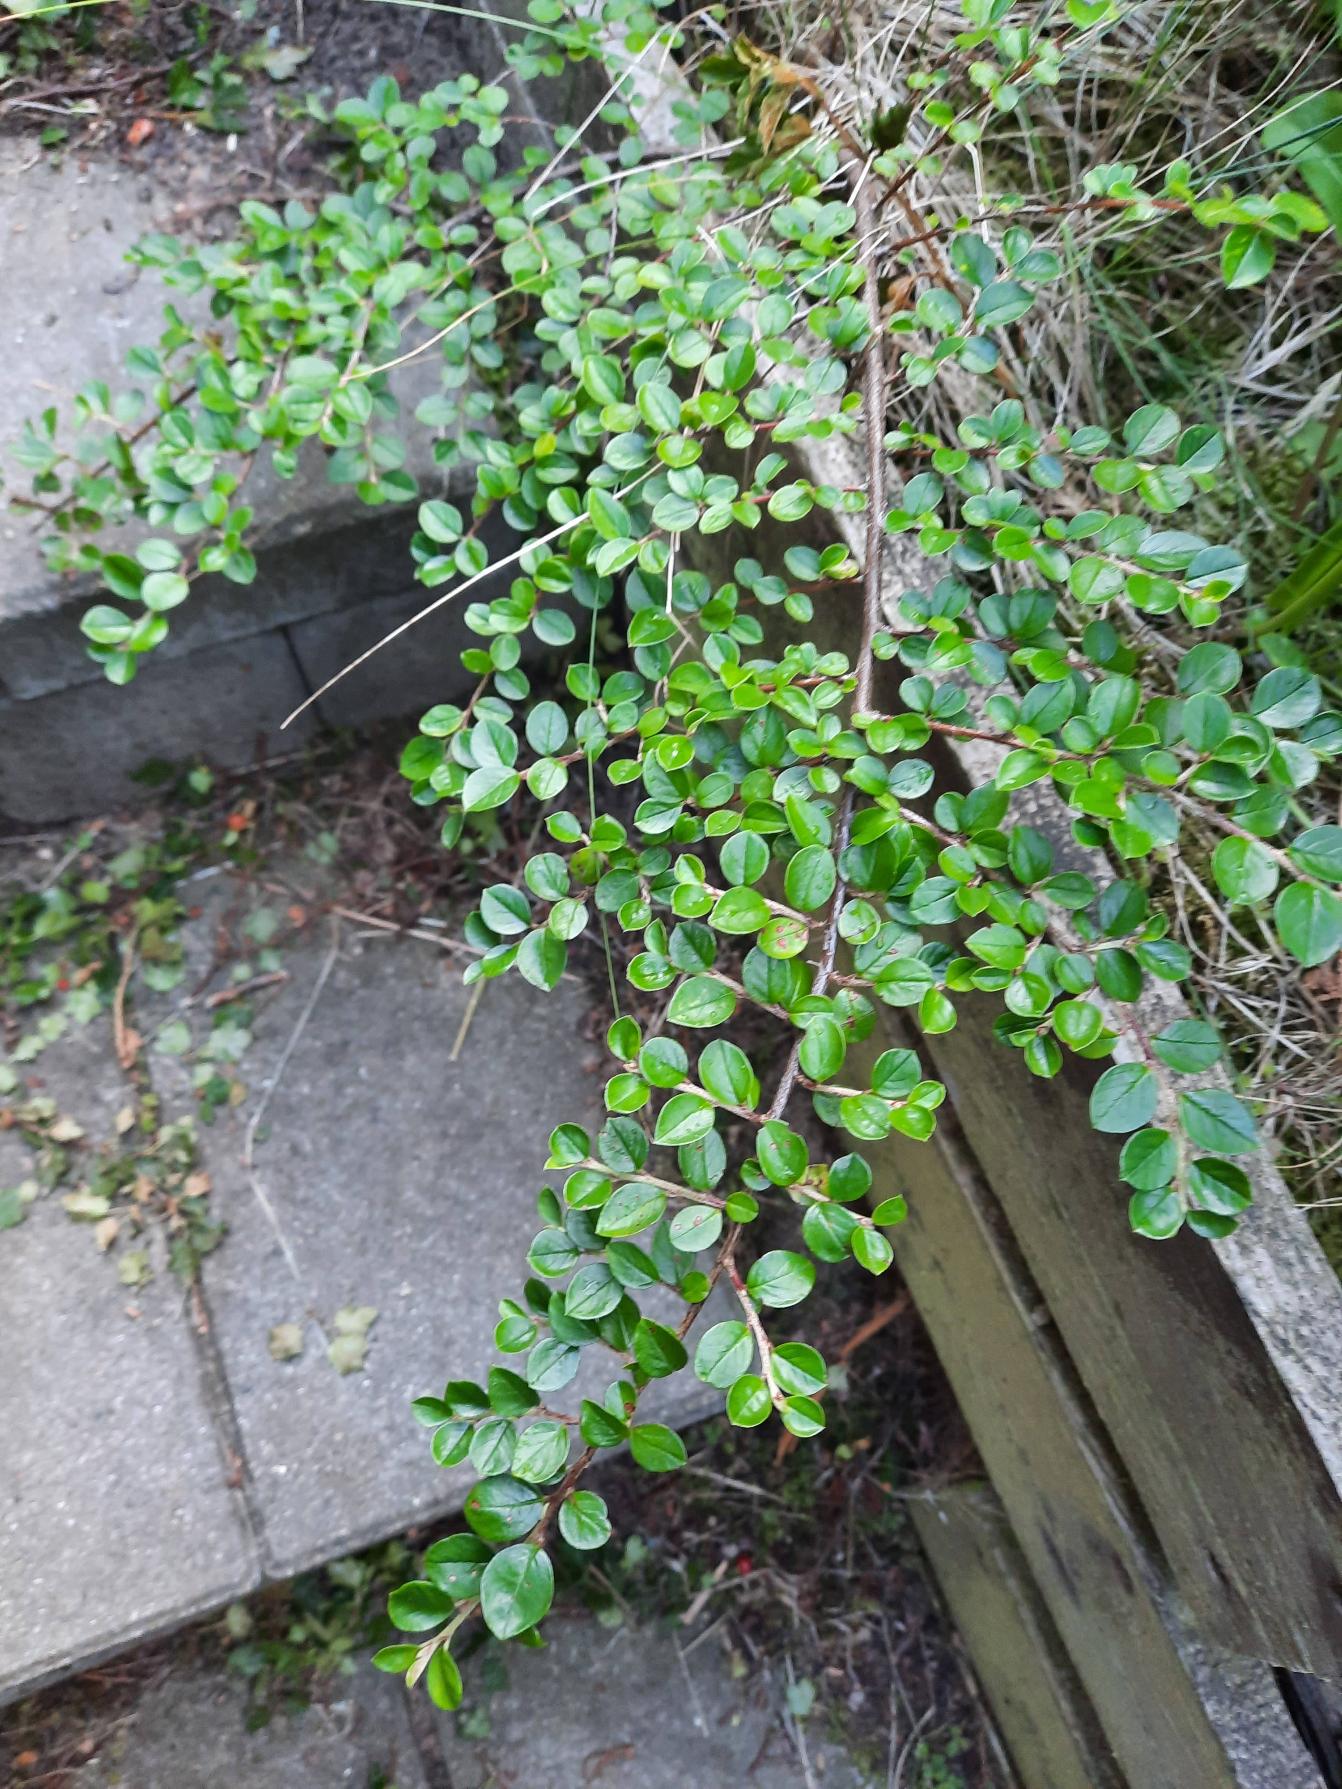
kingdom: Plantae
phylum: Tracheophyta
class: Magnoliopsida
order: Rosales
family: Rosaceae
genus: Cotoneaster
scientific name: Cotoneaster hjelmqvistii
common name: Hjelmqvists dværgmispel
